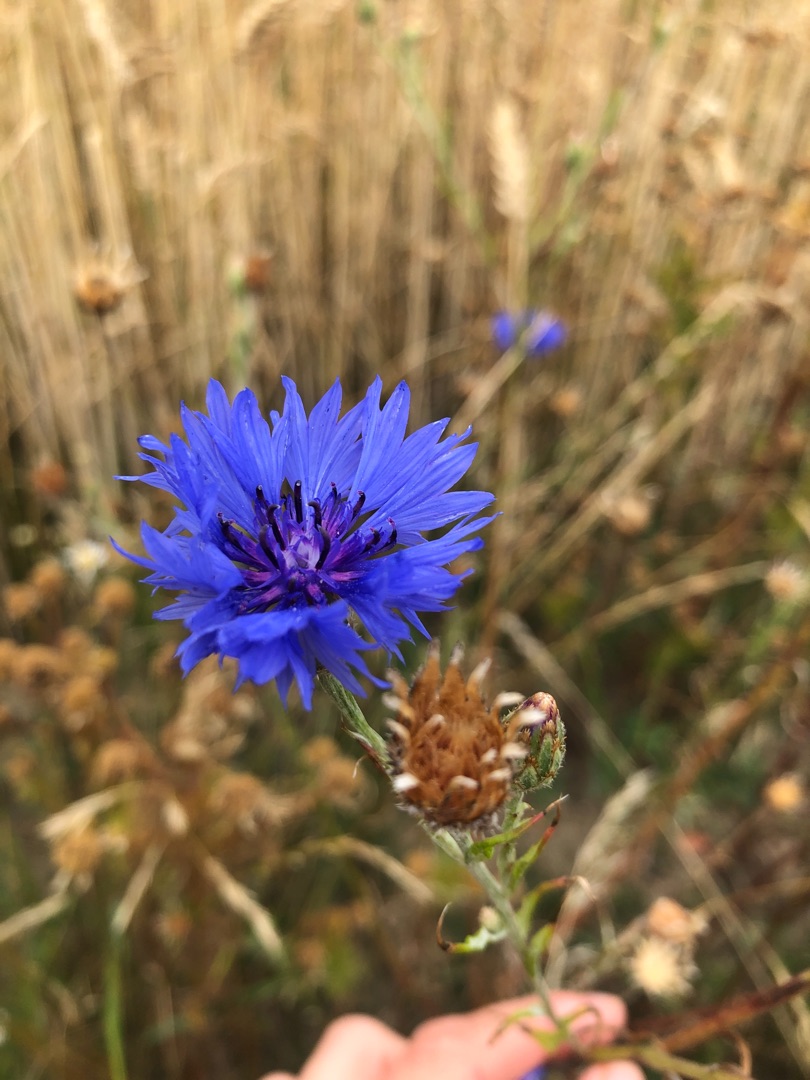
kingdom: Plantae
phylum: Tracheophyta
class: Magnoliopsida
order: Asterales
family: Asteraceae
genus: Centaurea
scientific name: Centaurea cyanus
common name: Kornblomst
